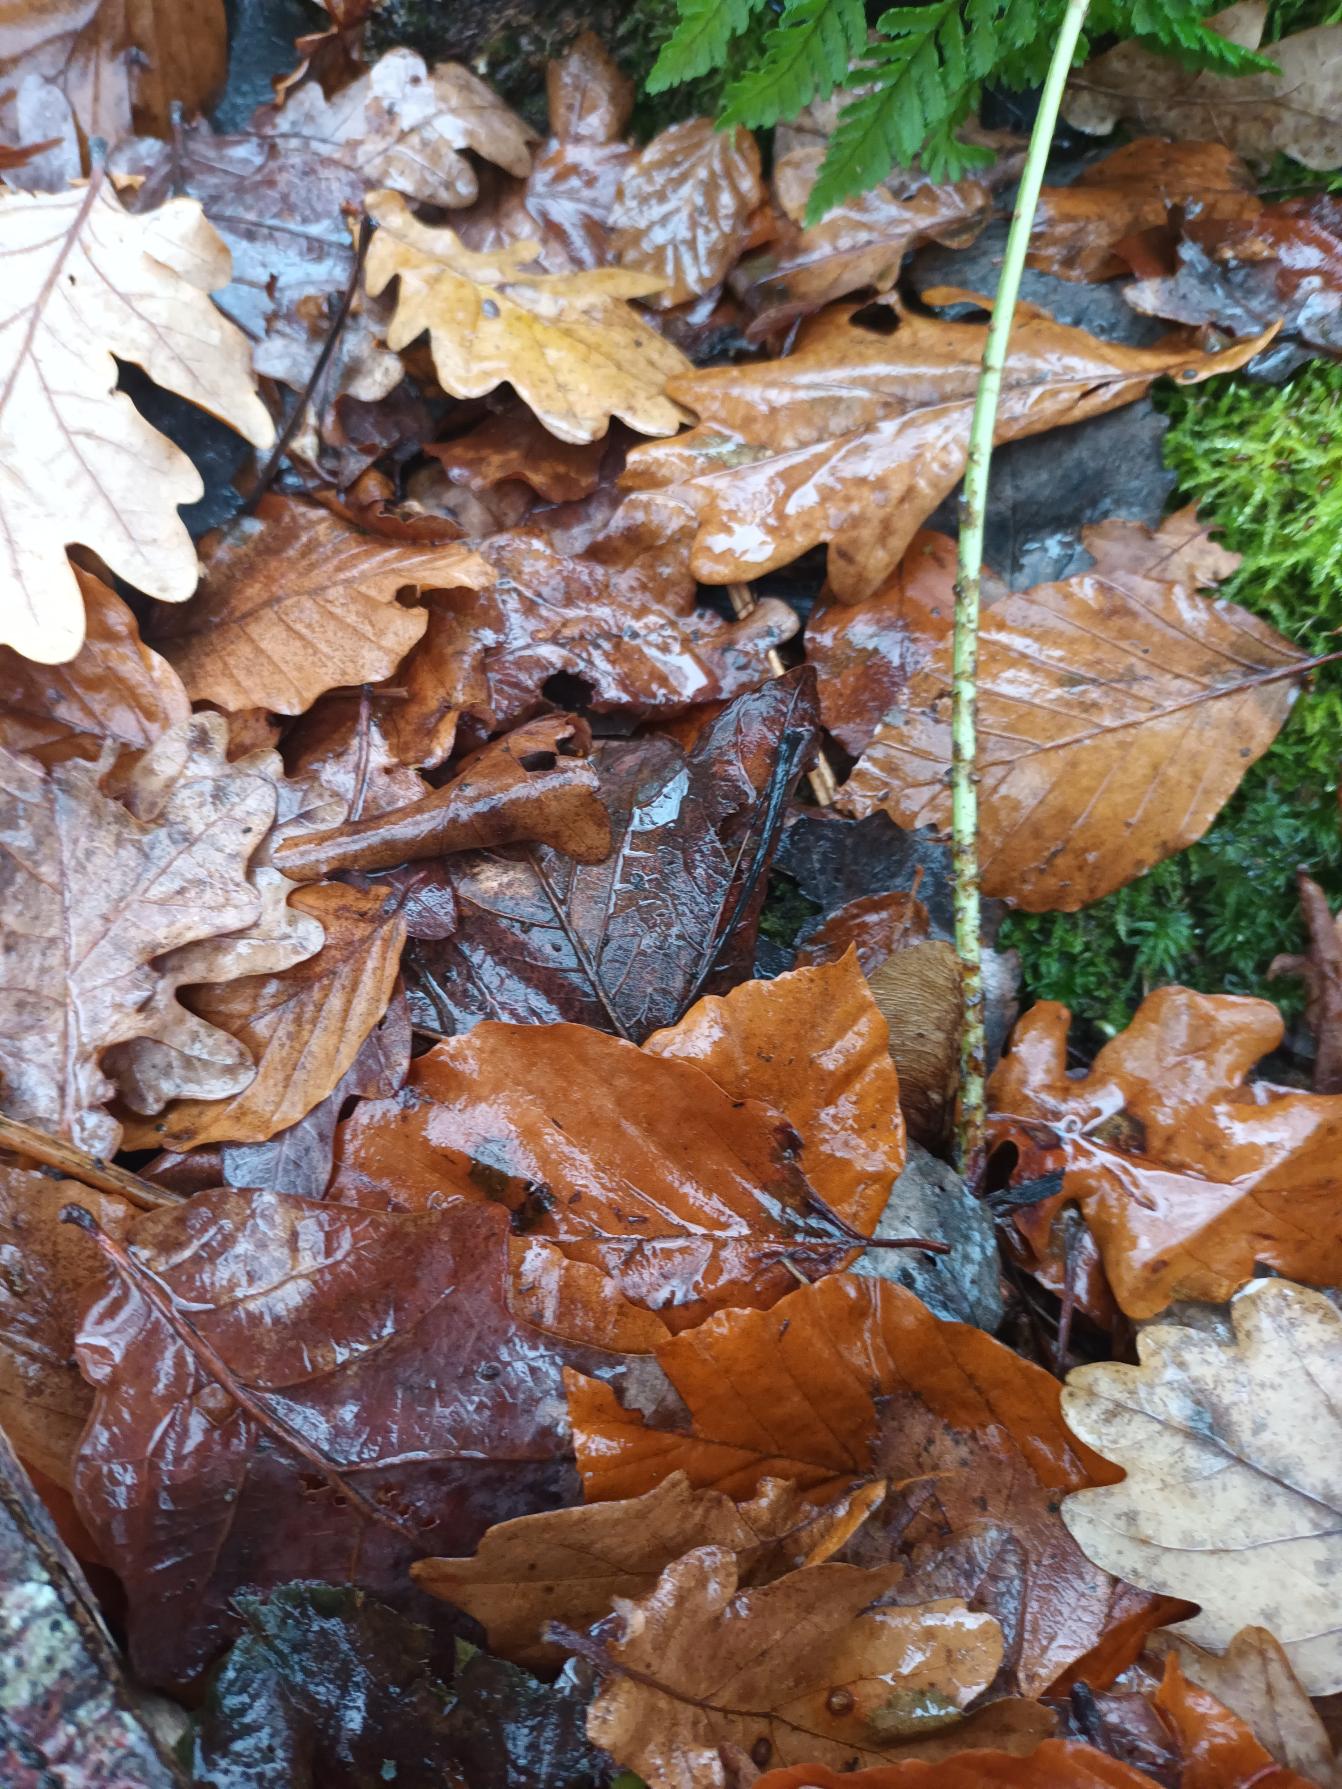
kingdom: Plantae
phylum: Tracheophyta
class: Polypodiopsida
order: Polypodiales
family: Dryopteridaceae
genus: Dryopteris
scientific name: Dryopteris dilatata
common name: Bredbladet mangeløv
